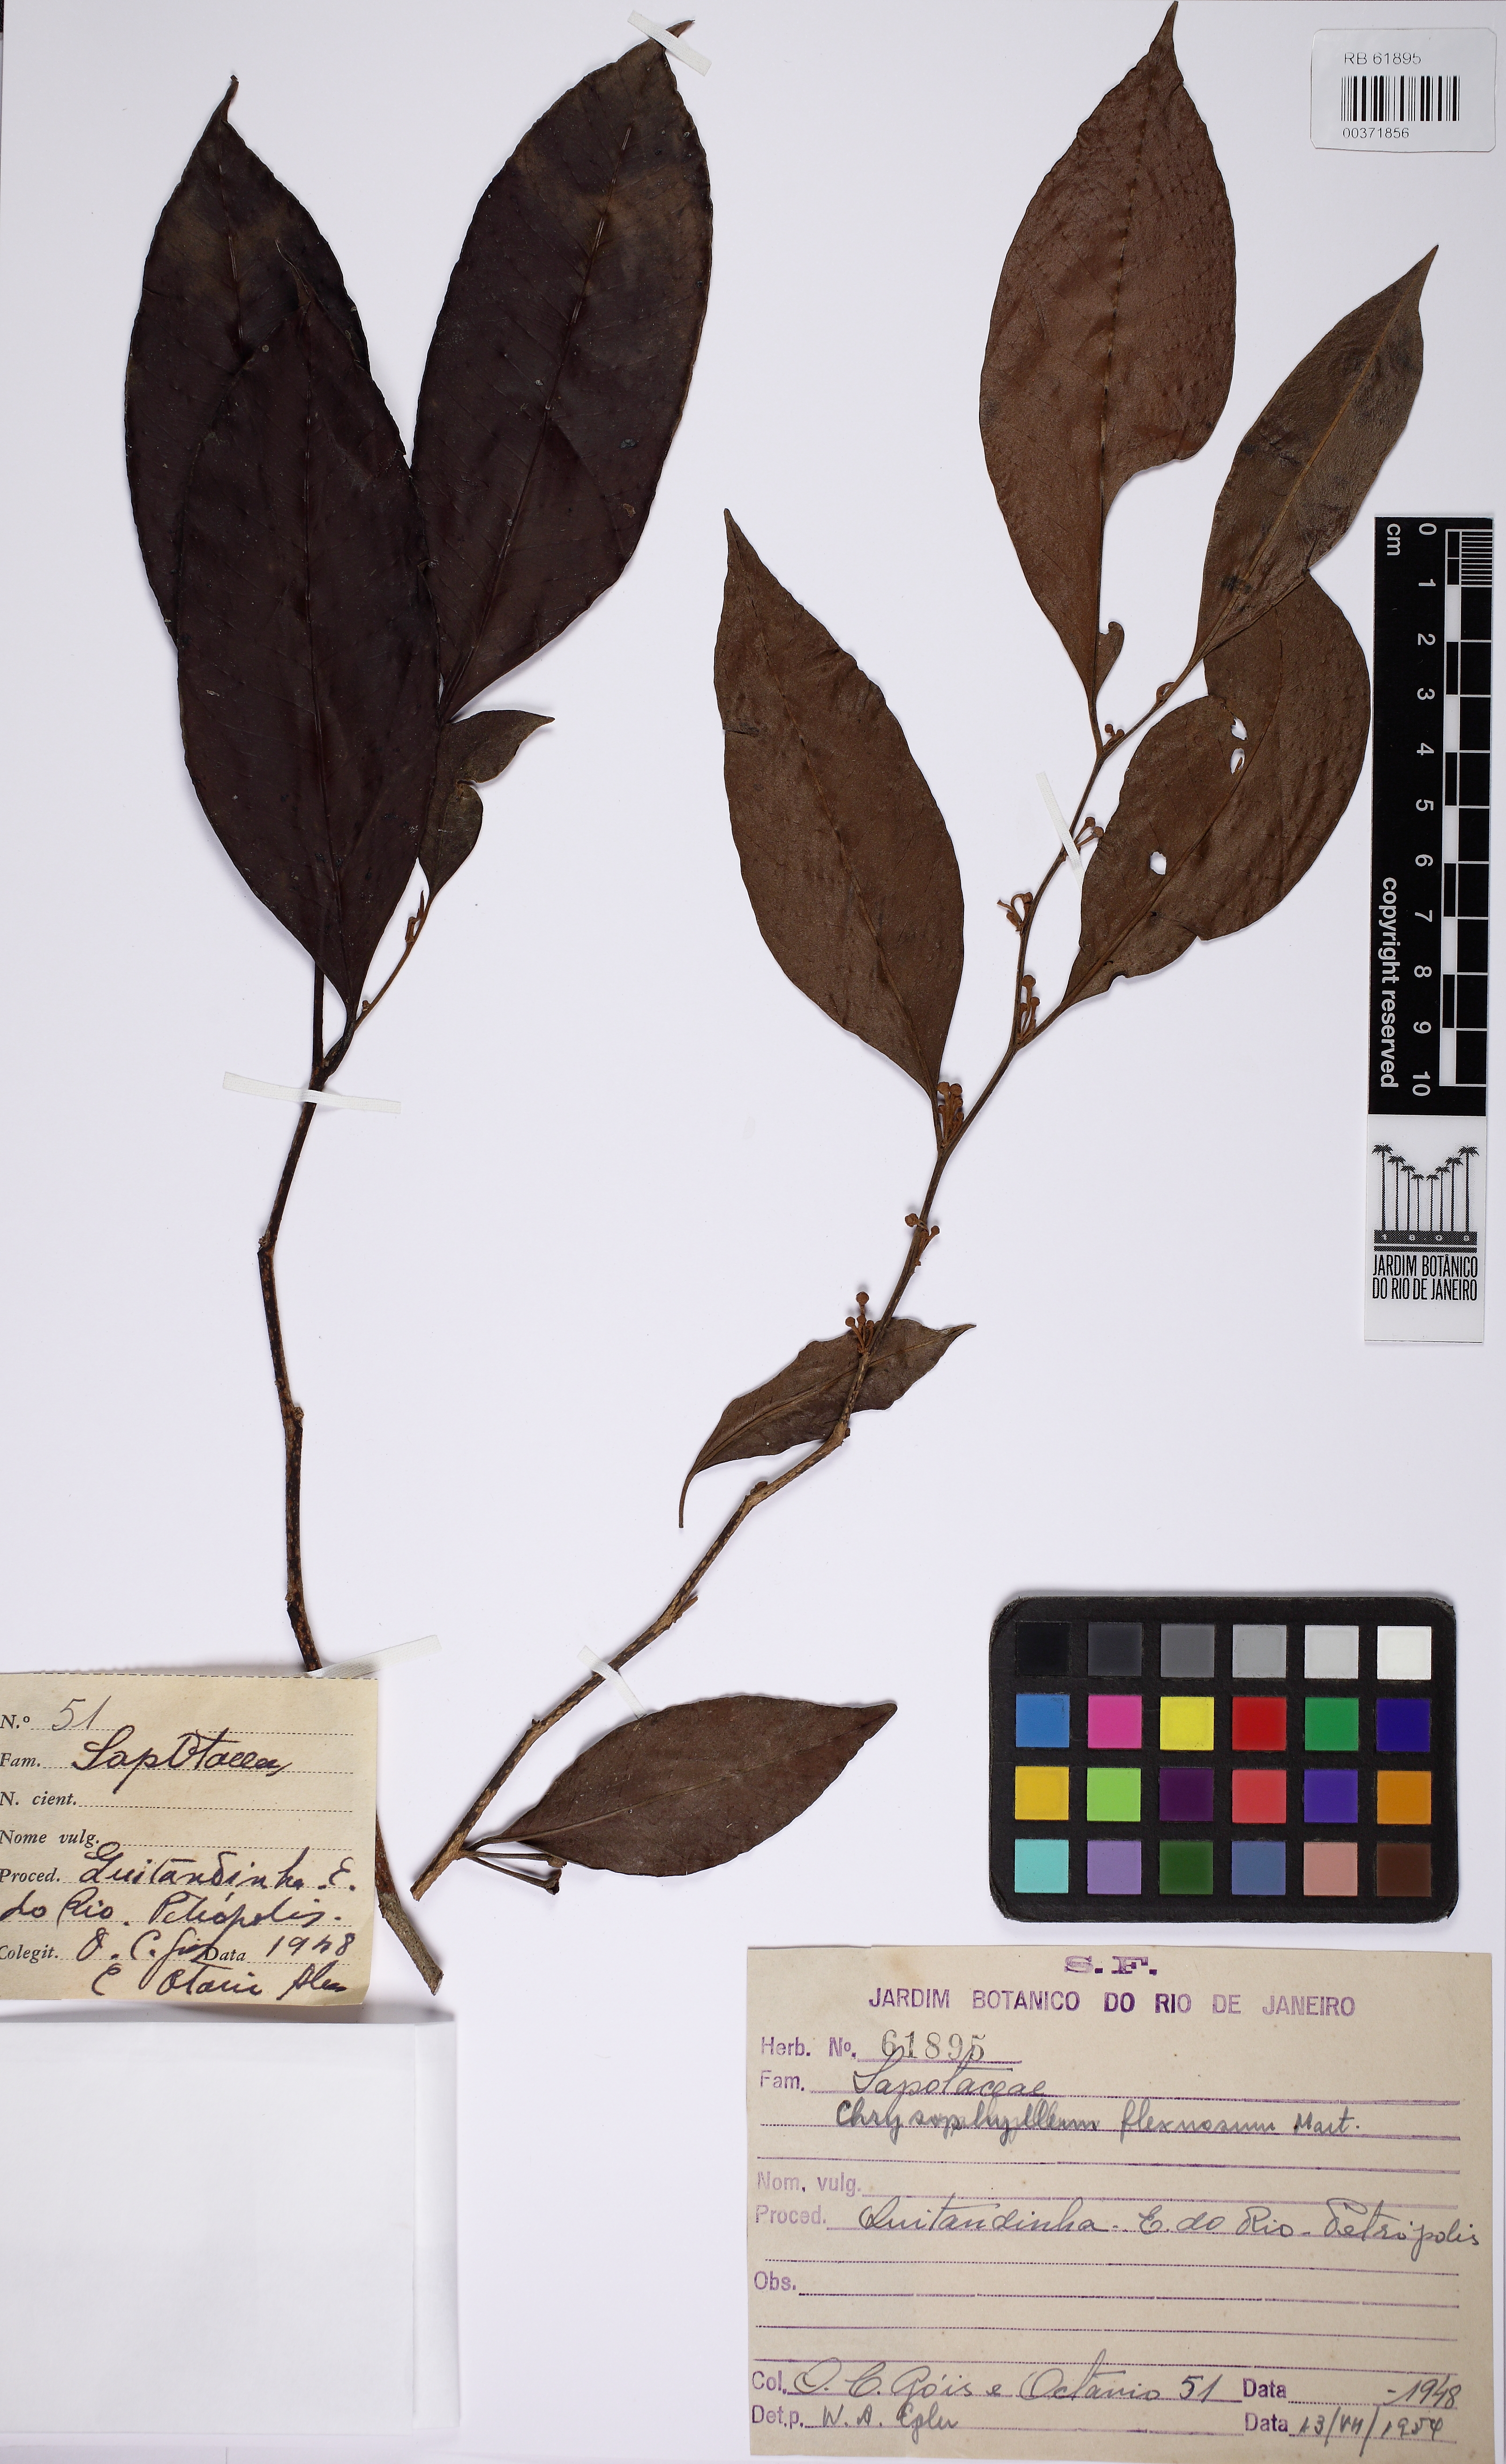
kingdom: Plantae
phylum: Tracheophyta
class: Magnoliopsida
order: Ericales
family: Sapotaceae
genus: Chrysophyllum
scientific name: Chrysophyllum flexuosum
